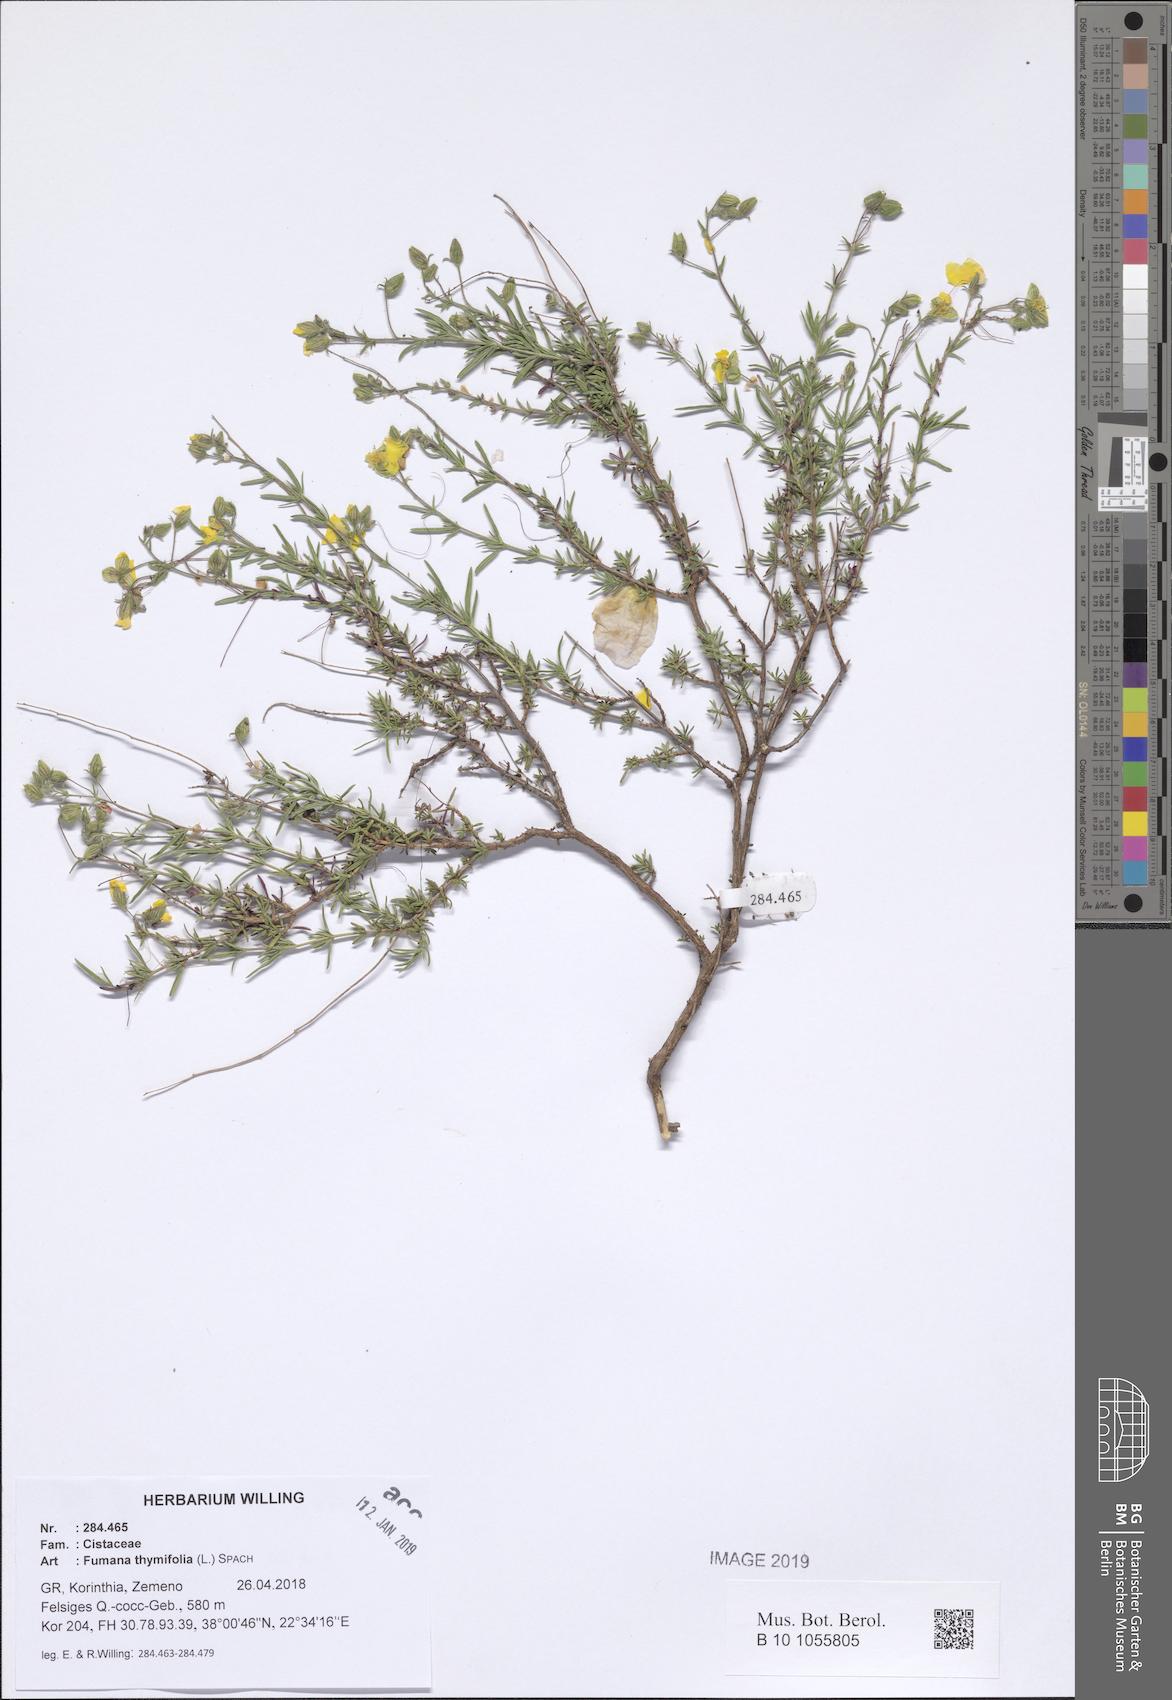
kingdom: Plantae
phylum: Tracheophyta
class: Magnoliopsida
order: Malvales
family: Cistaceae
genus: Fumana
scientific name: Fumana thymifolia
